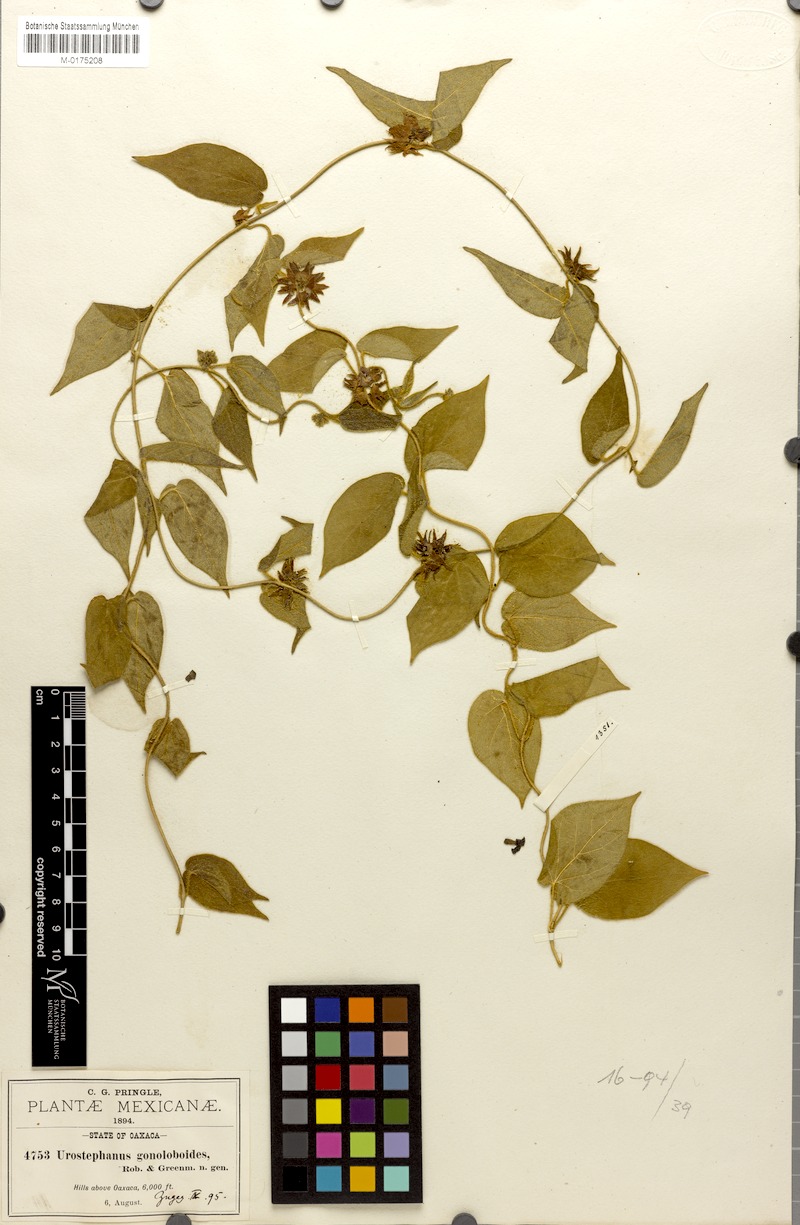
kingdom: Plantae
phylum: Tracheophyta
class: Magnoliopsida
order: Gentianales
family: Apocynaceae
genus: Matelea
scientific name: Matelea gonoloboides
